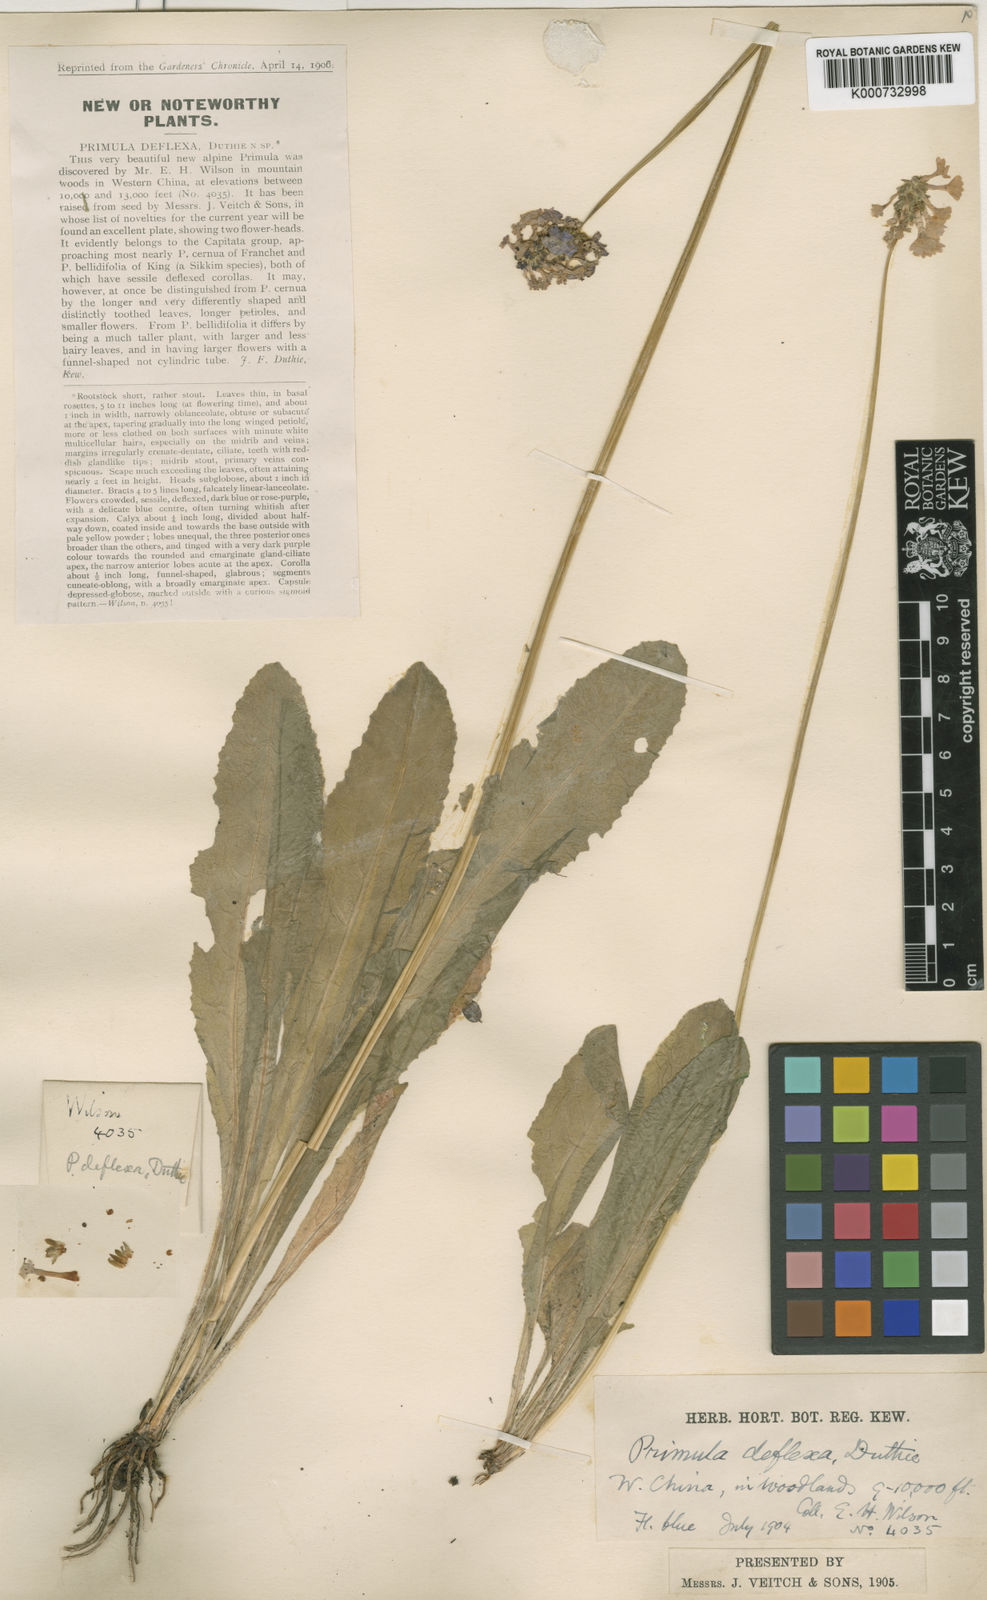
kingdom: Plantae
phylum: Tracheophyta
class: Magnoliopsida
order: Ericales
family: Primulaceae
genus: Primula
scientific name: Primula gracilenta
